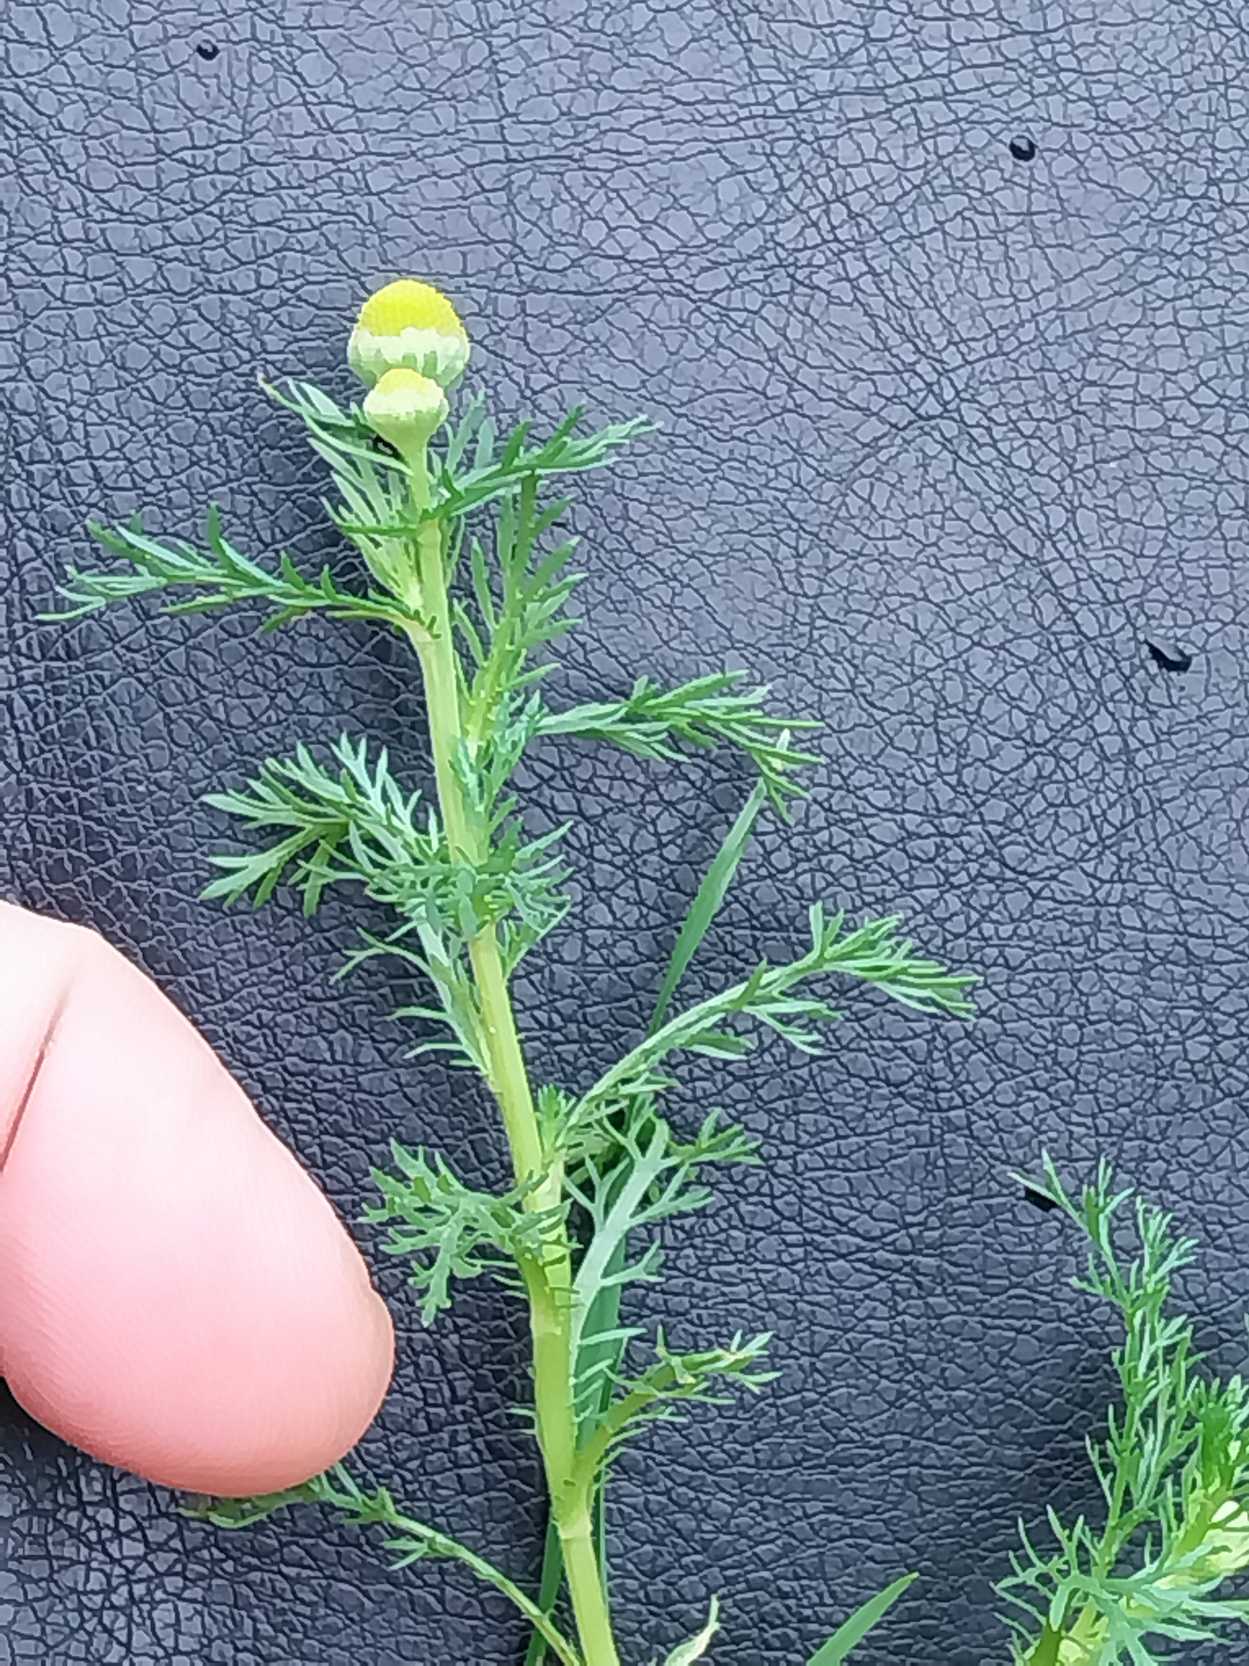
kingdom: Plantae
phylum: Tracheophyta
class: Magnoliopsida
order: Asterales
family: Asteraceae
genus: Matricaria
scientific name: Matricaria discoidea
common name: Skive-kamille
